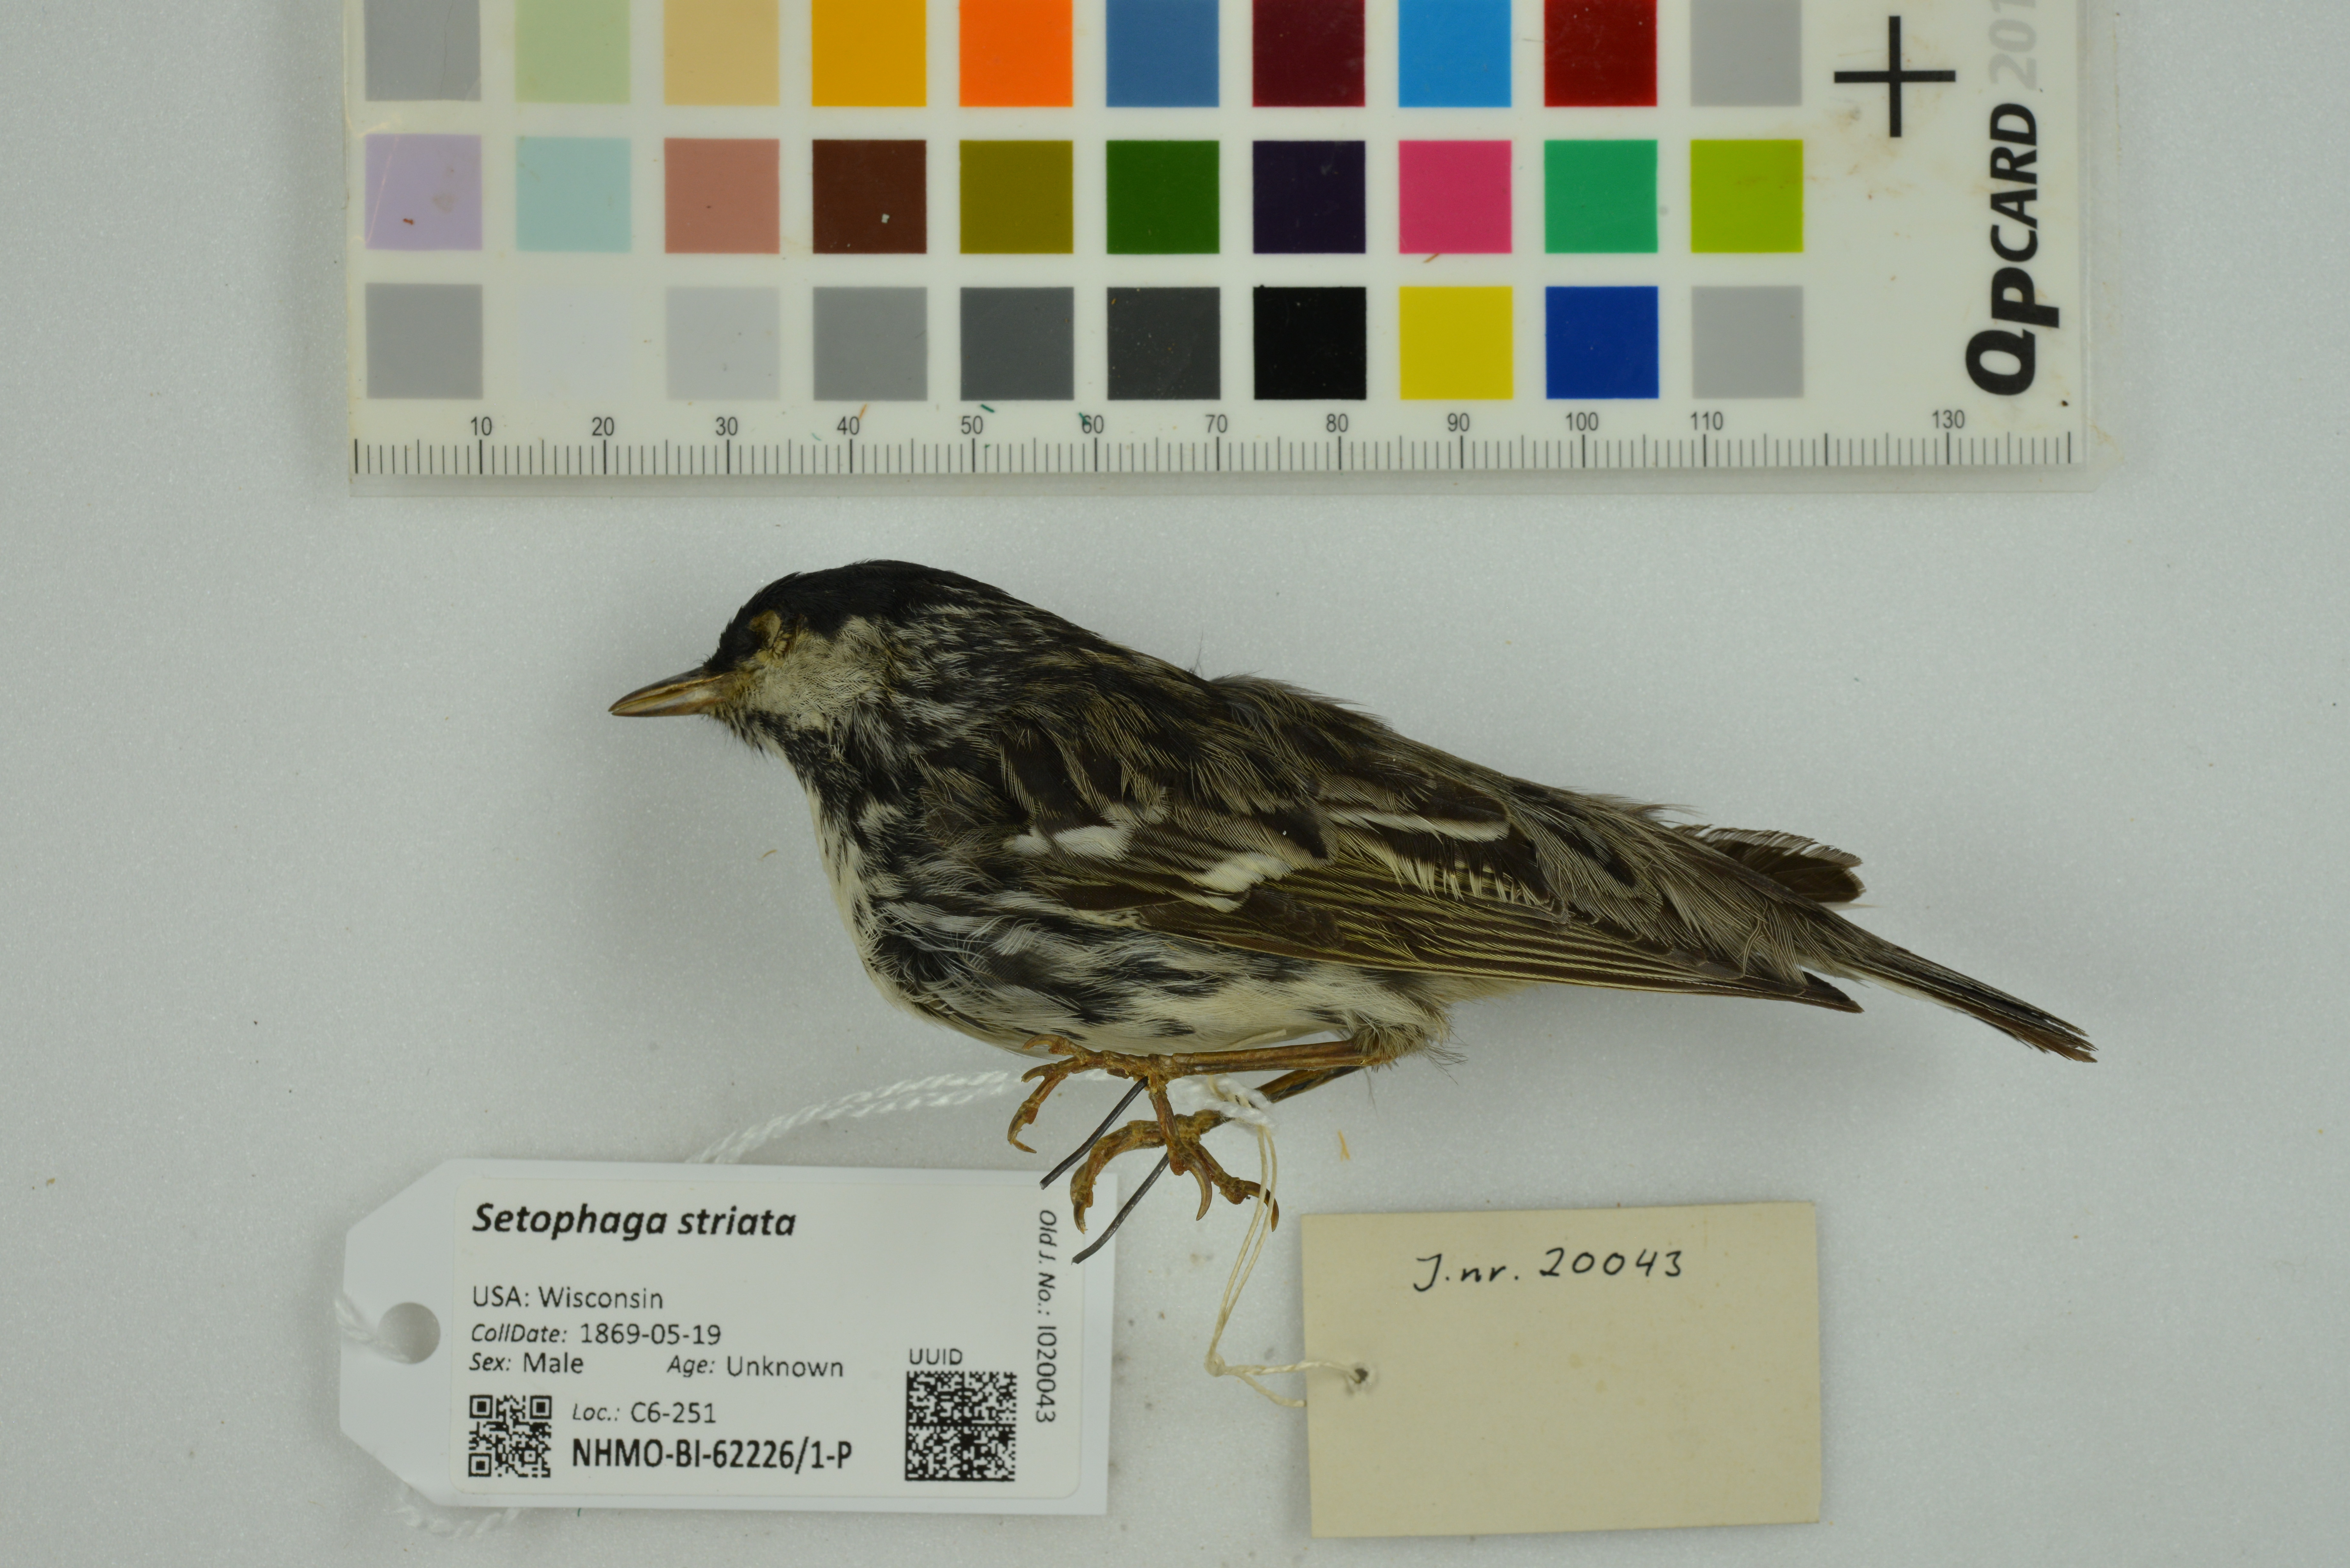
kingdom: Animalia
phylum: Chordata
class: Aves
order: Passeriformes
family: Parulidae
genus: Setophaga
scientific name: Setophaga striata
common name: Blackpoll warbler
